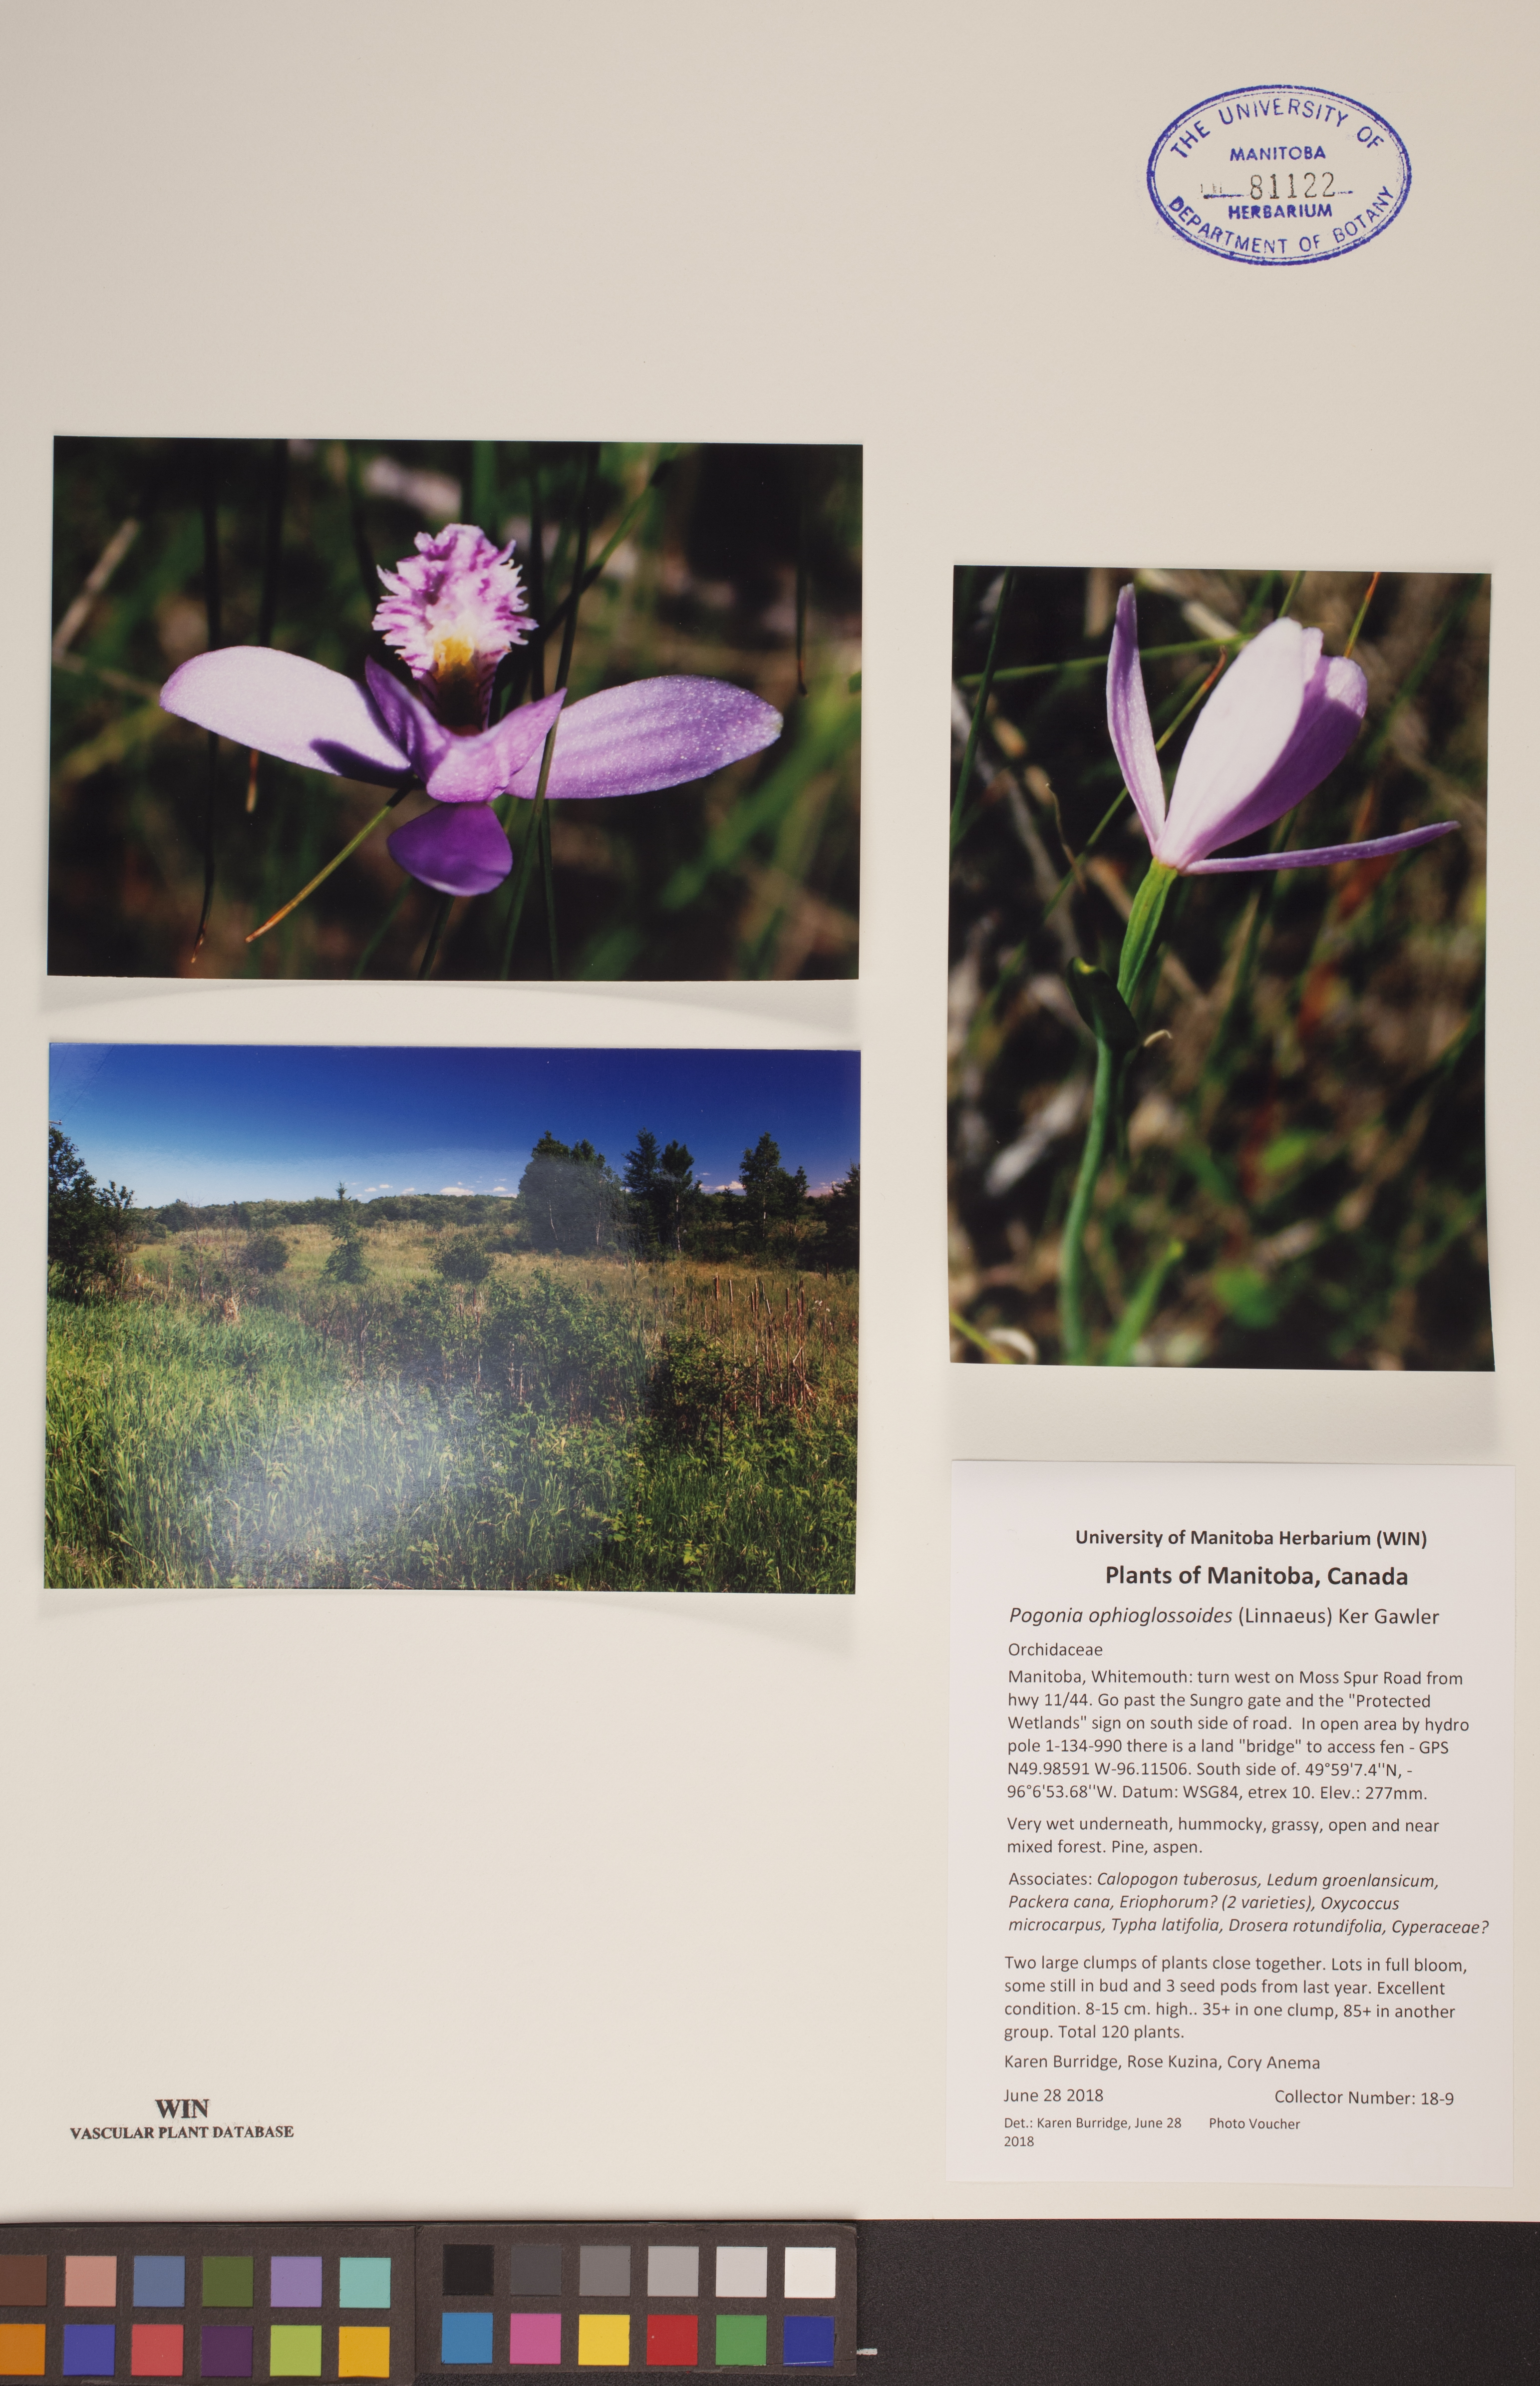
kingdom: Plantae
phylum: Tracheophyta
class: Liliopsida
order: Asparagales
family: Orchidaceae
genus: Pogonia
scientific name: Pogonia ophioglossoides
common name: Rose pogonia
